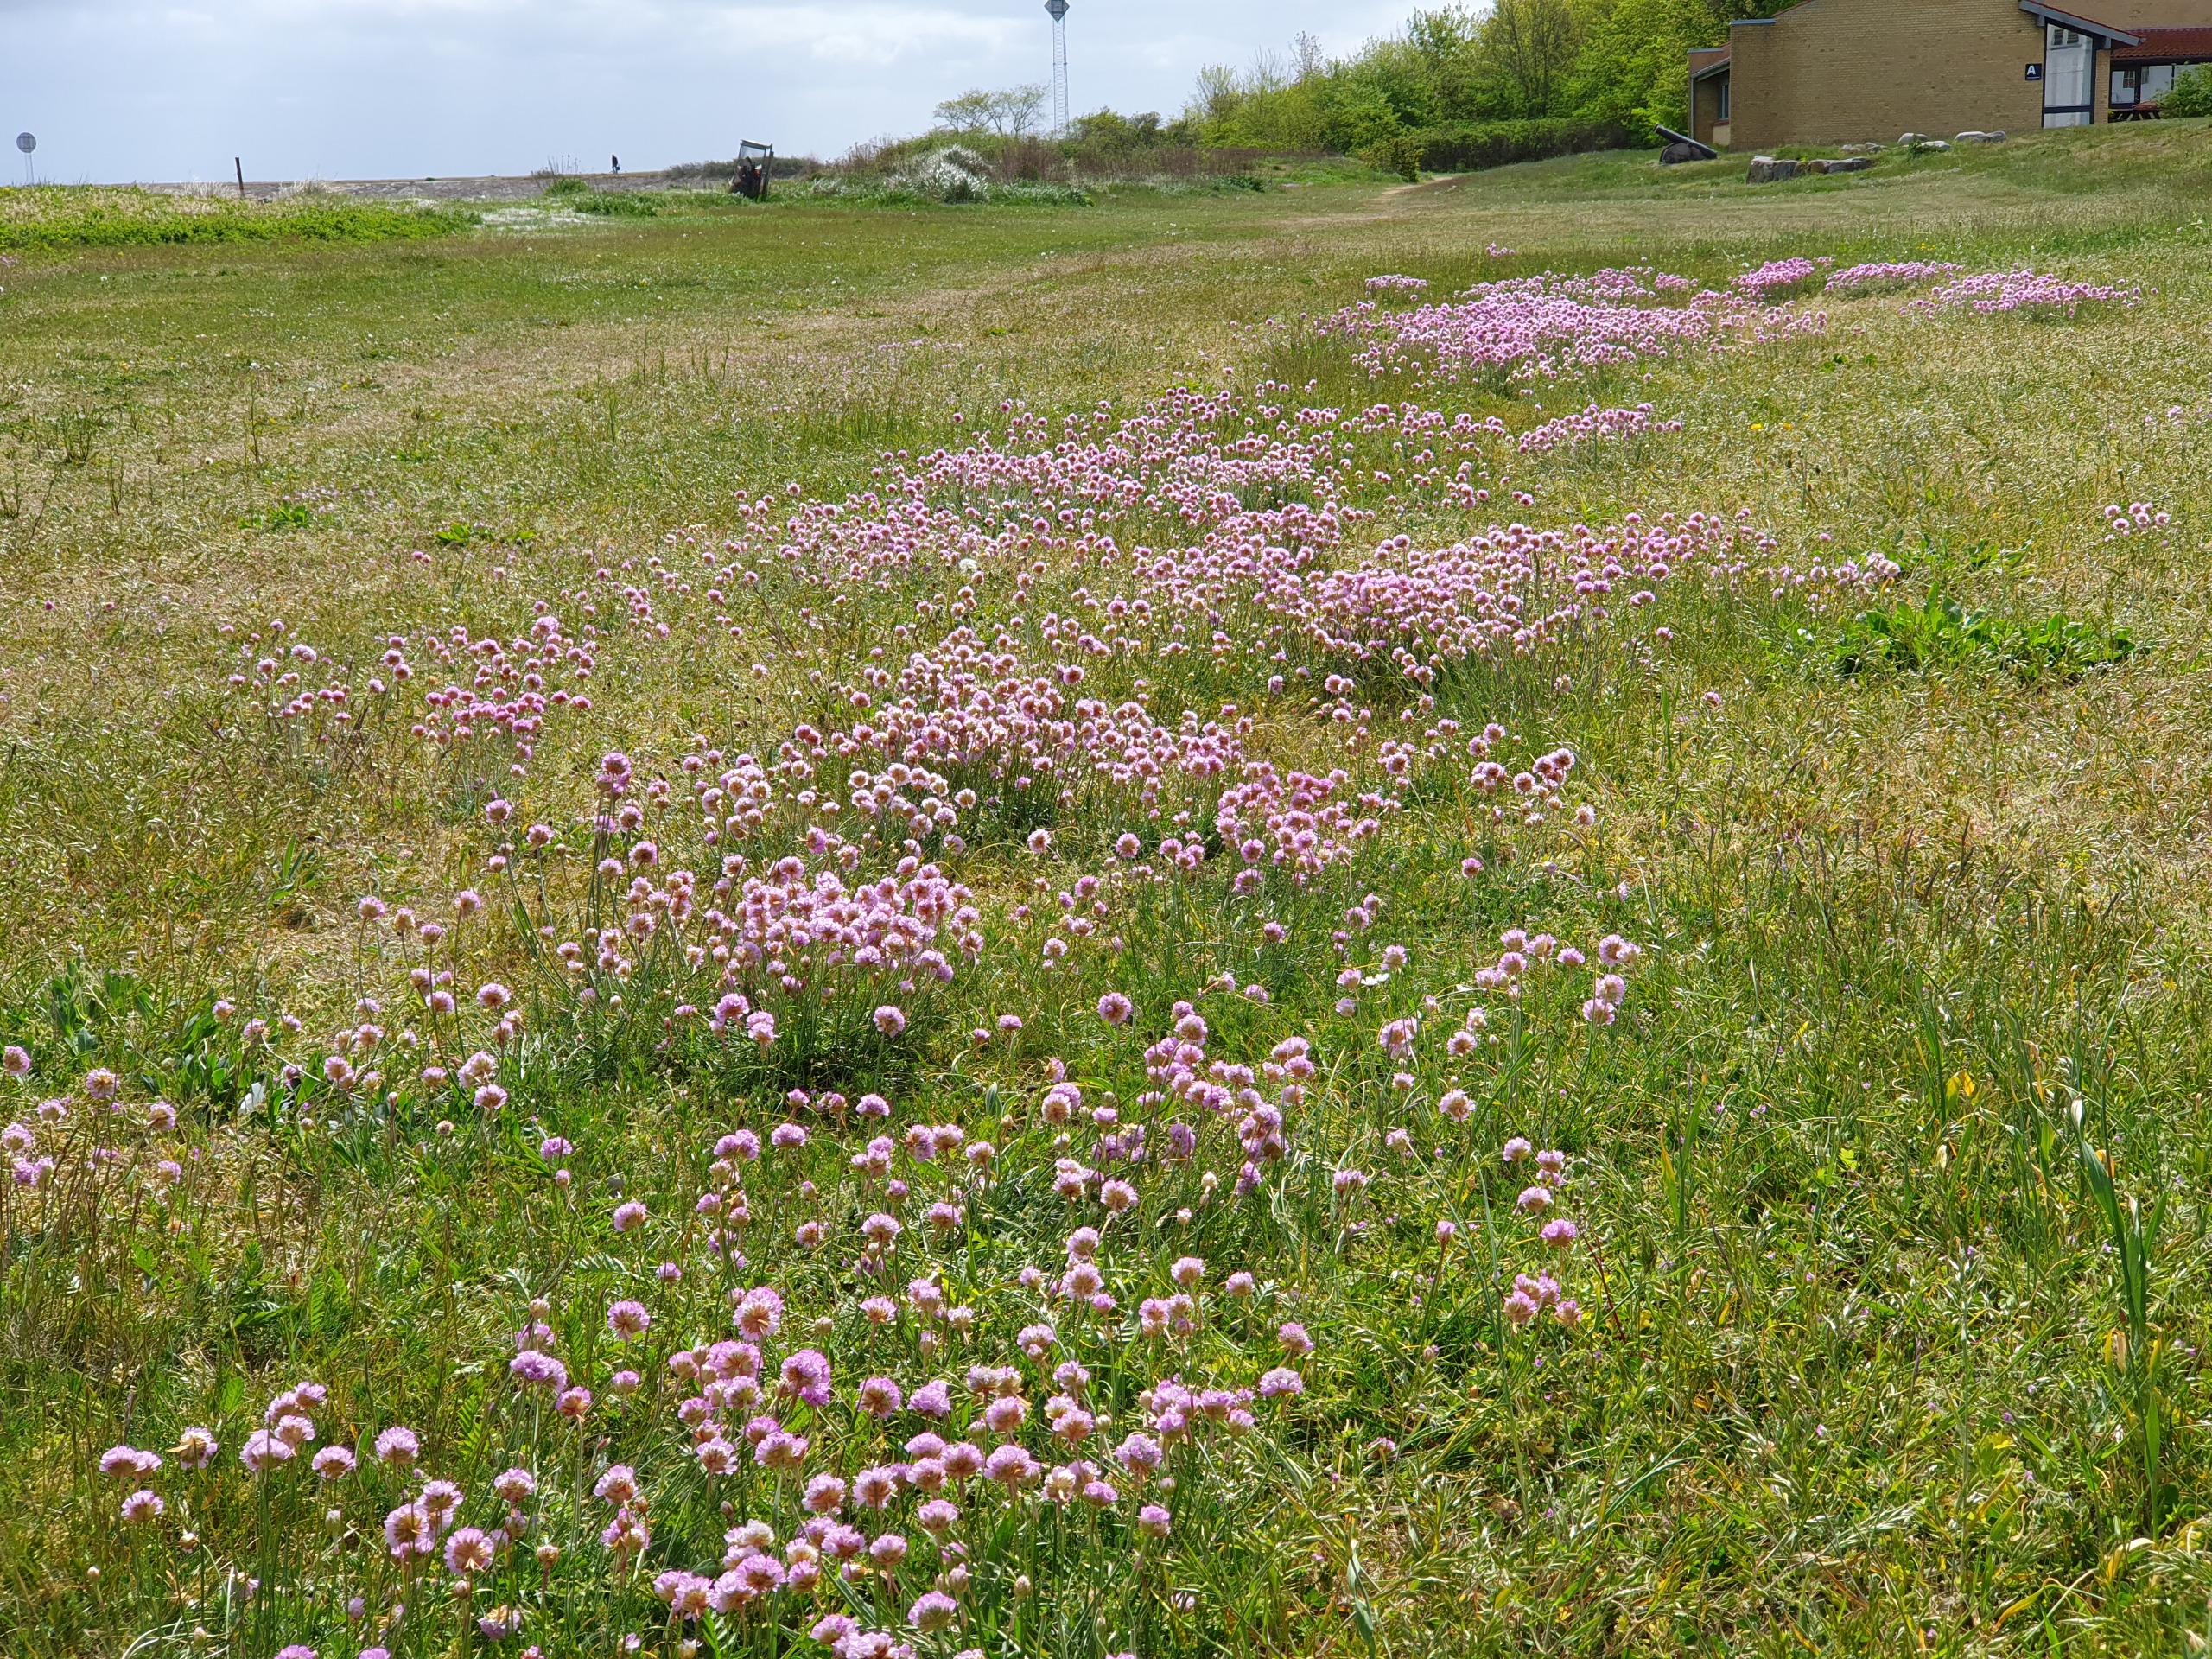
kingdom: Plantae
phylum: Tracheophyta
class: Magnoliopsida
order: Caryophyllales
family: Plumbaginaceae
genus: Armeria
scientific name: Armeria maritima
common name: Engelskgræs
